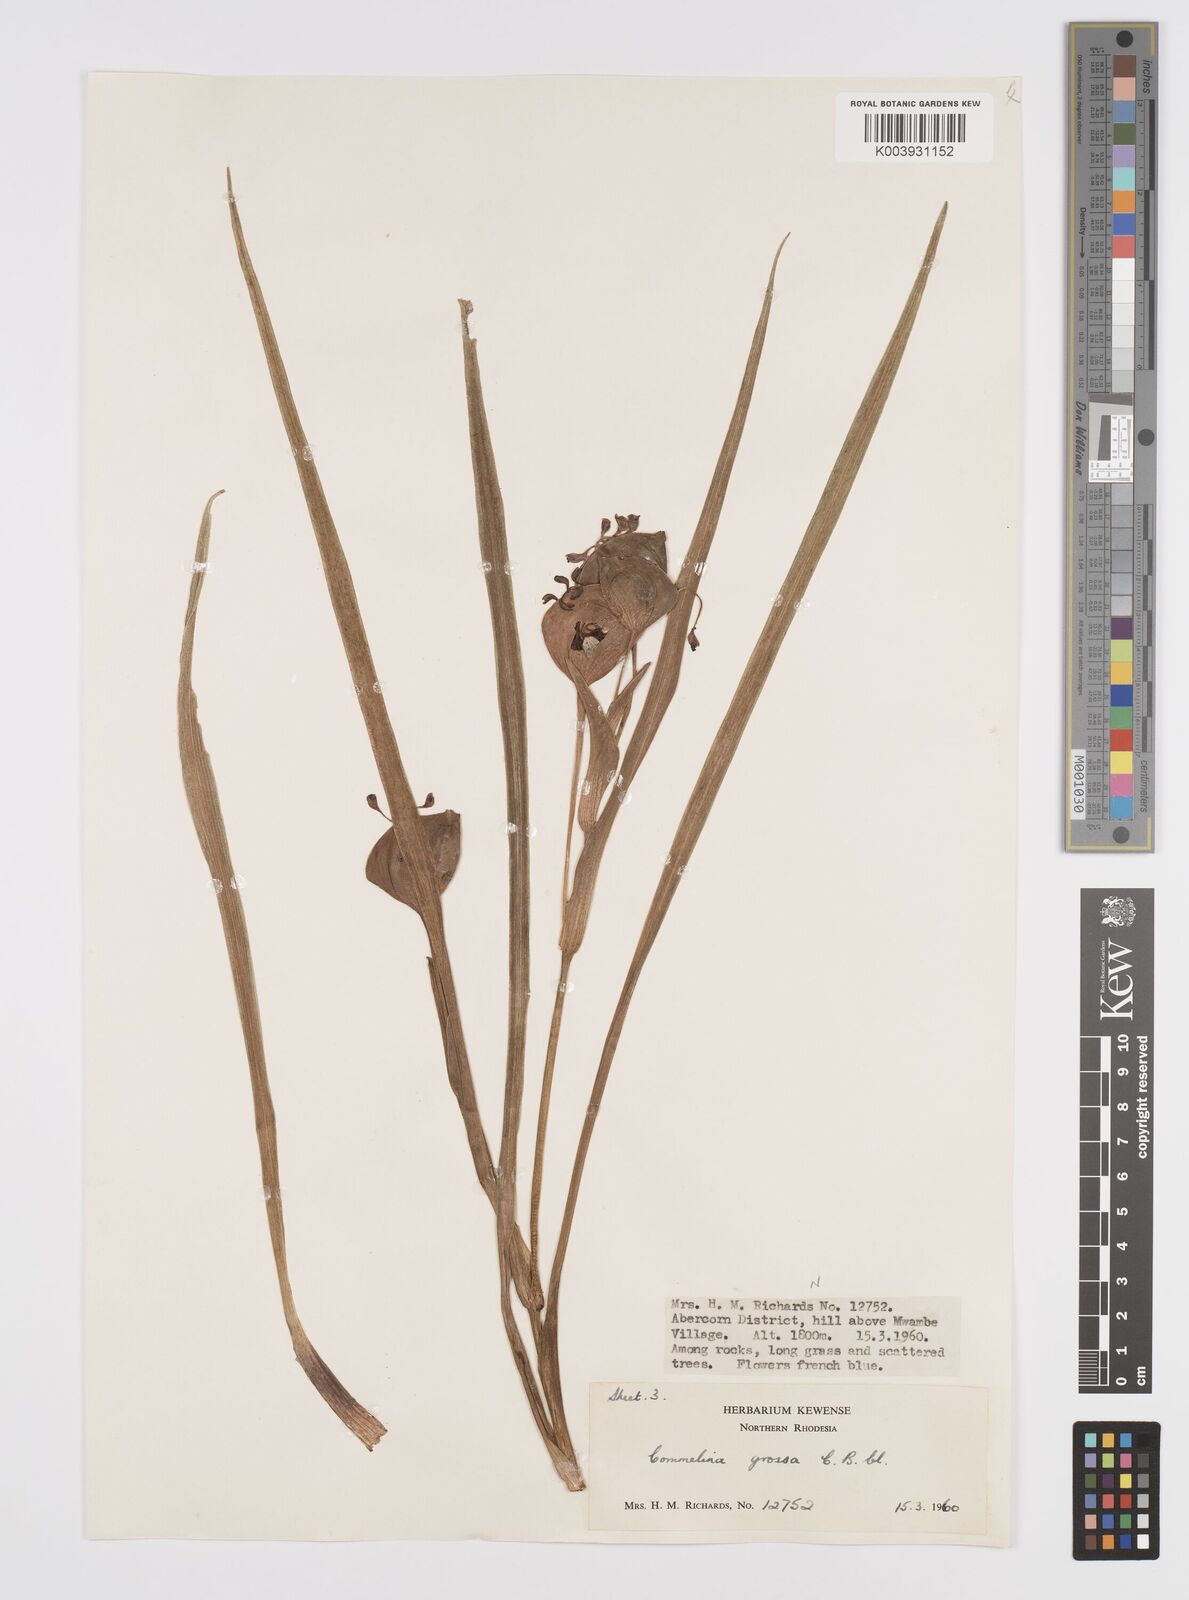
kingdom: Plantae
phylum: Tracheophyta
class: Liliopsida
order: Commelinales
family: Commelinaceae
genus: Commelina
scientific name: Commelina grossa
